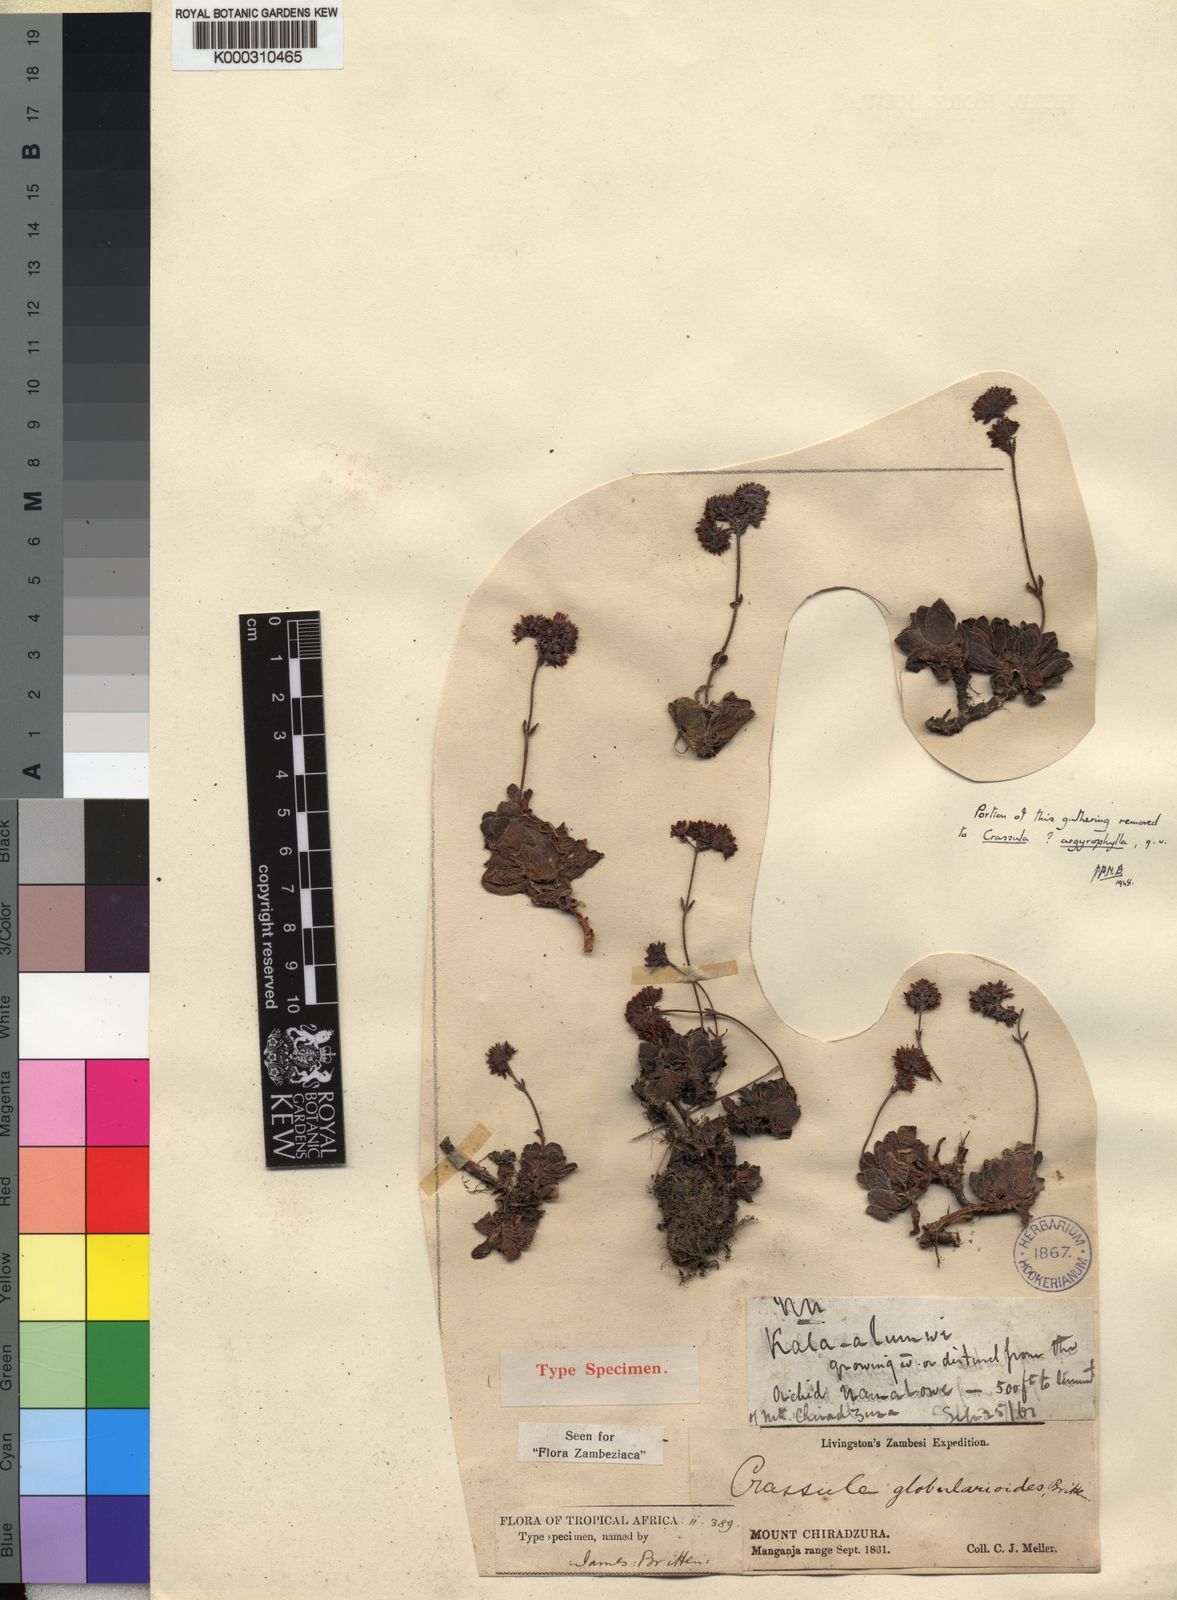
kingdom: Plantae
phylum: Tracheophyta
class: Magnoliopsida
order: Saxifragales
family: Crassulaceae
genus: Crassula
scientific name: Crassula globularioides
